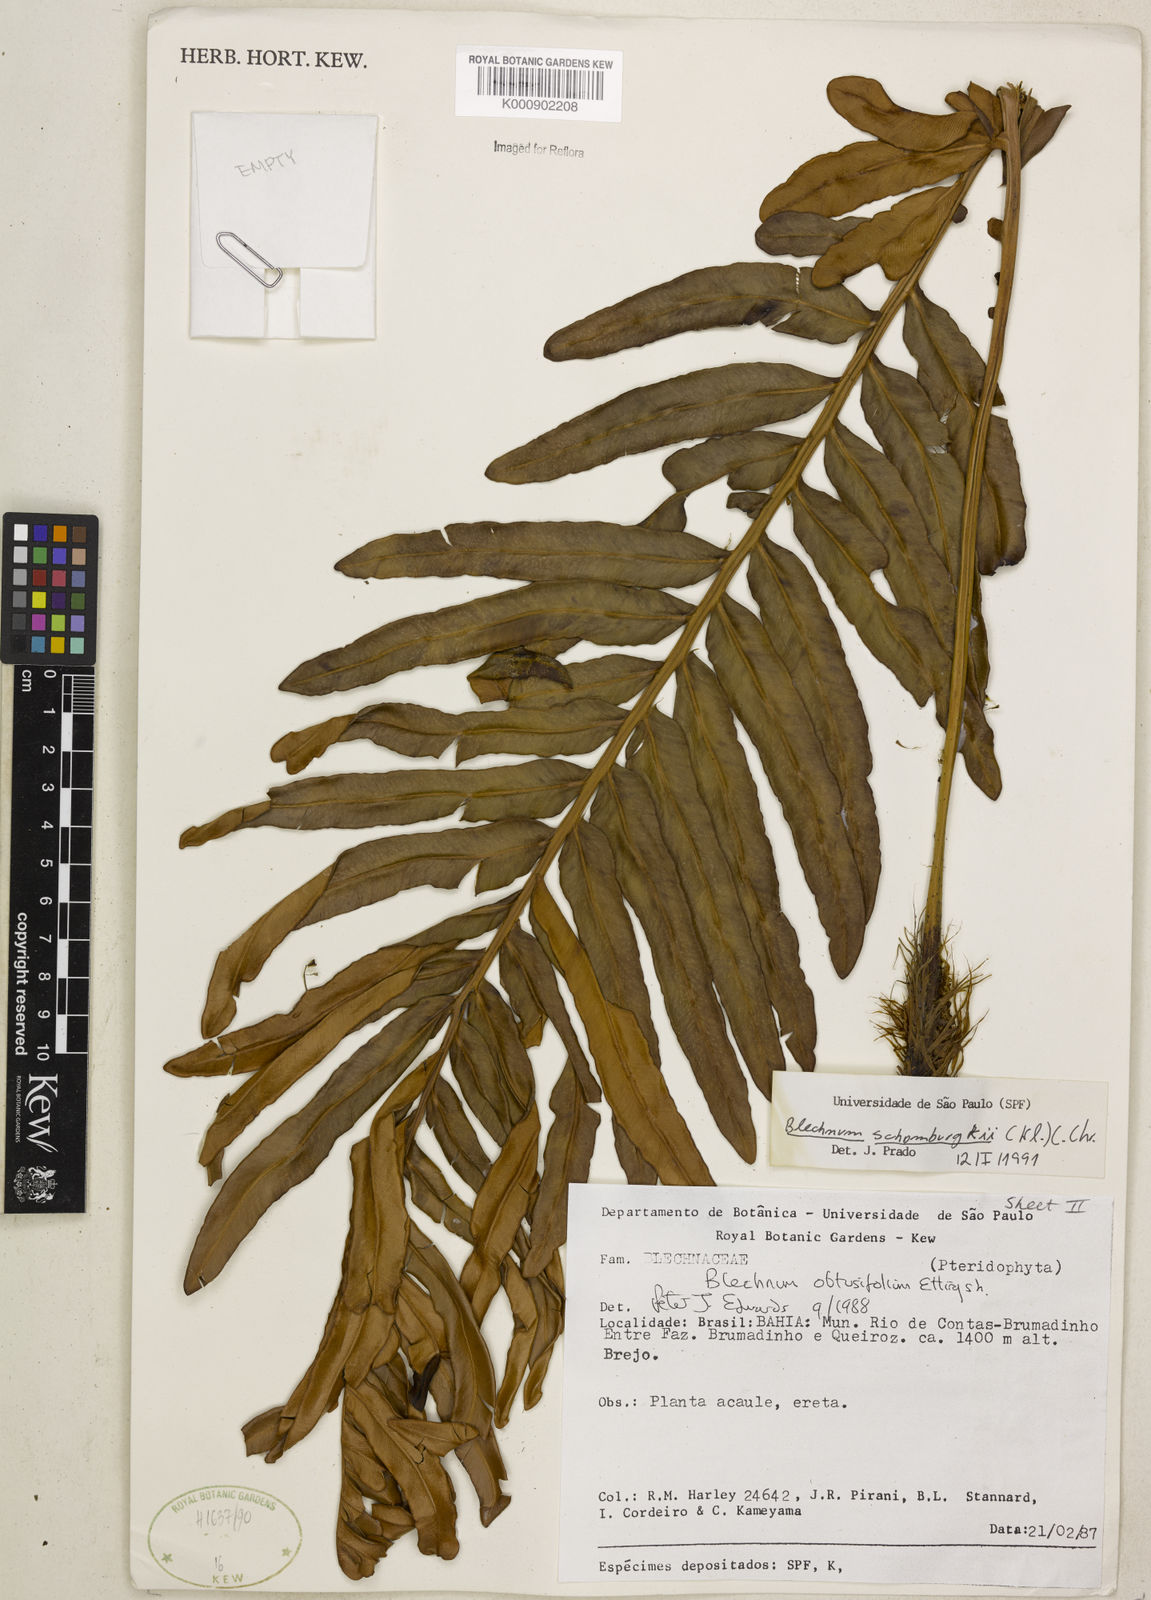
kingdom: Plantae
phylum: Tracheophyta
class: Polypodiopsida
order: Polypodiales
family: Blechnaceae
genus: Lomariocycas
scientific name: Lomariocycas schomburgkii
